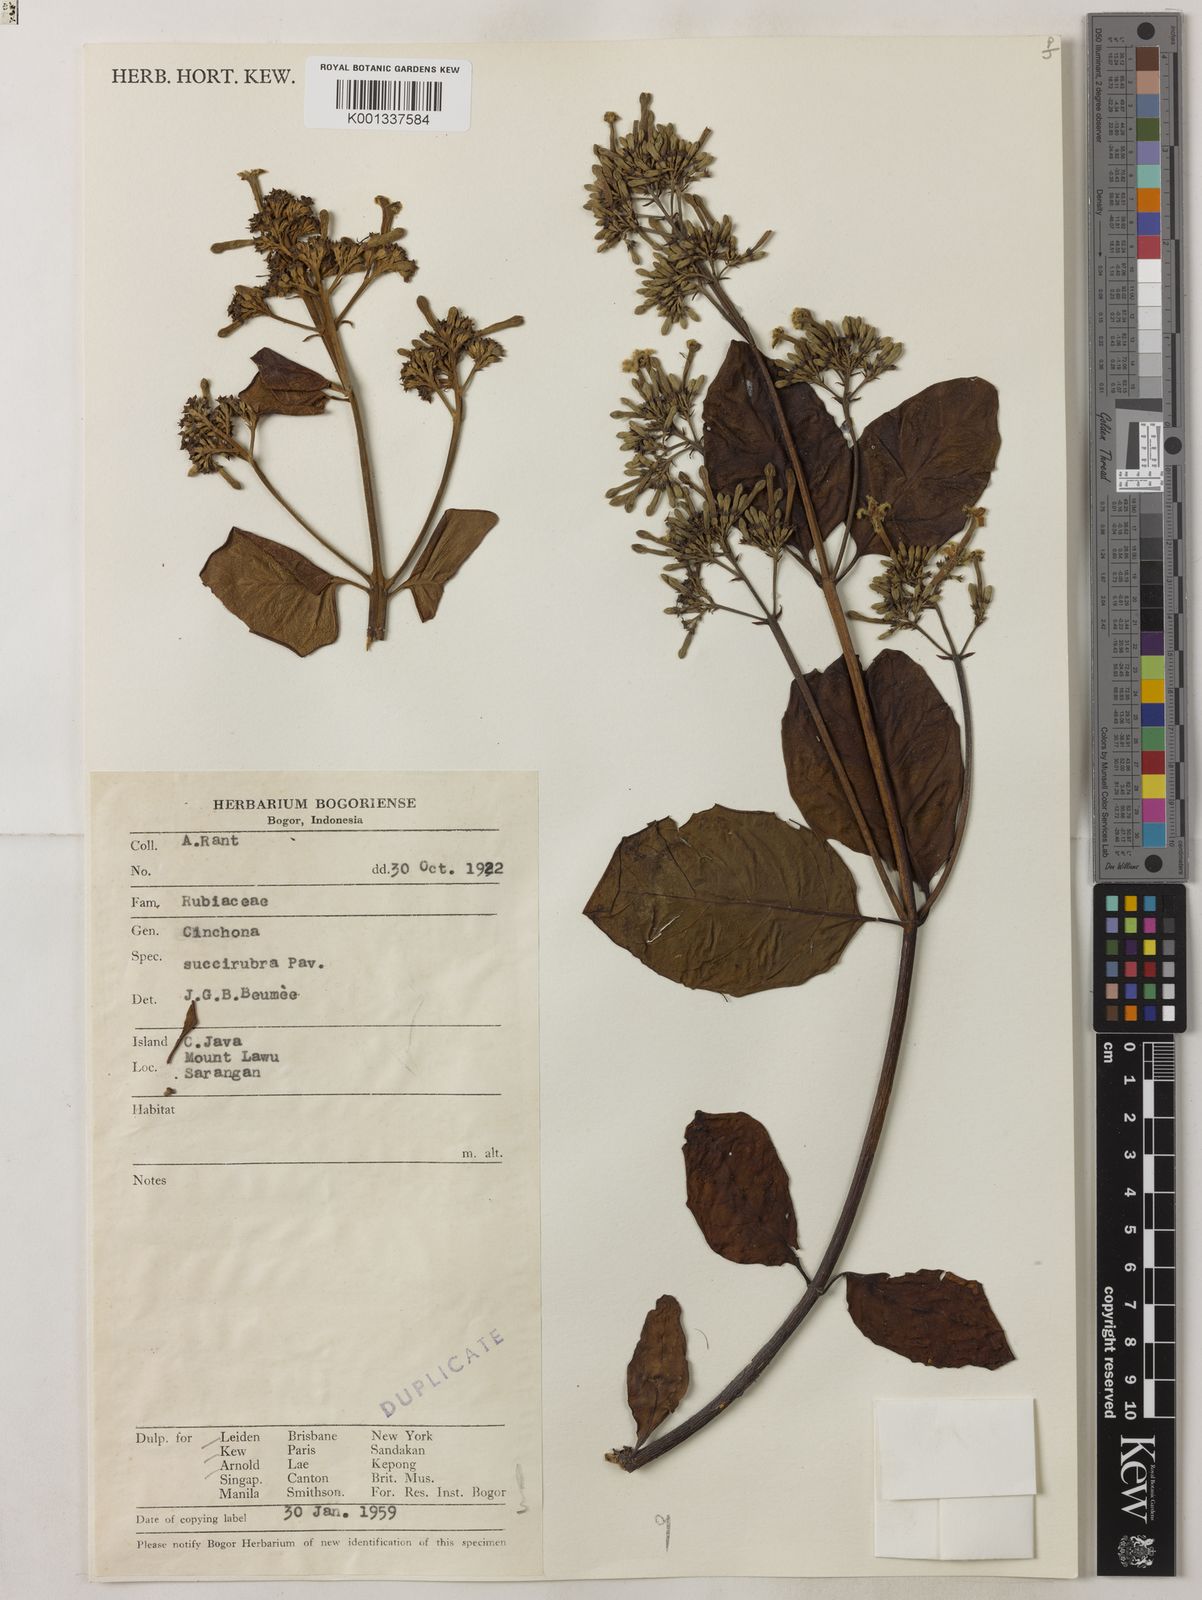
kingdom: Plantae
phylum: Tracheophyta
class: Magnoliopsida
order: Gentianales
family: Rubiaceae
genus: Cinchona
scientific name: Cinchona pubescens
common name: Quinine
